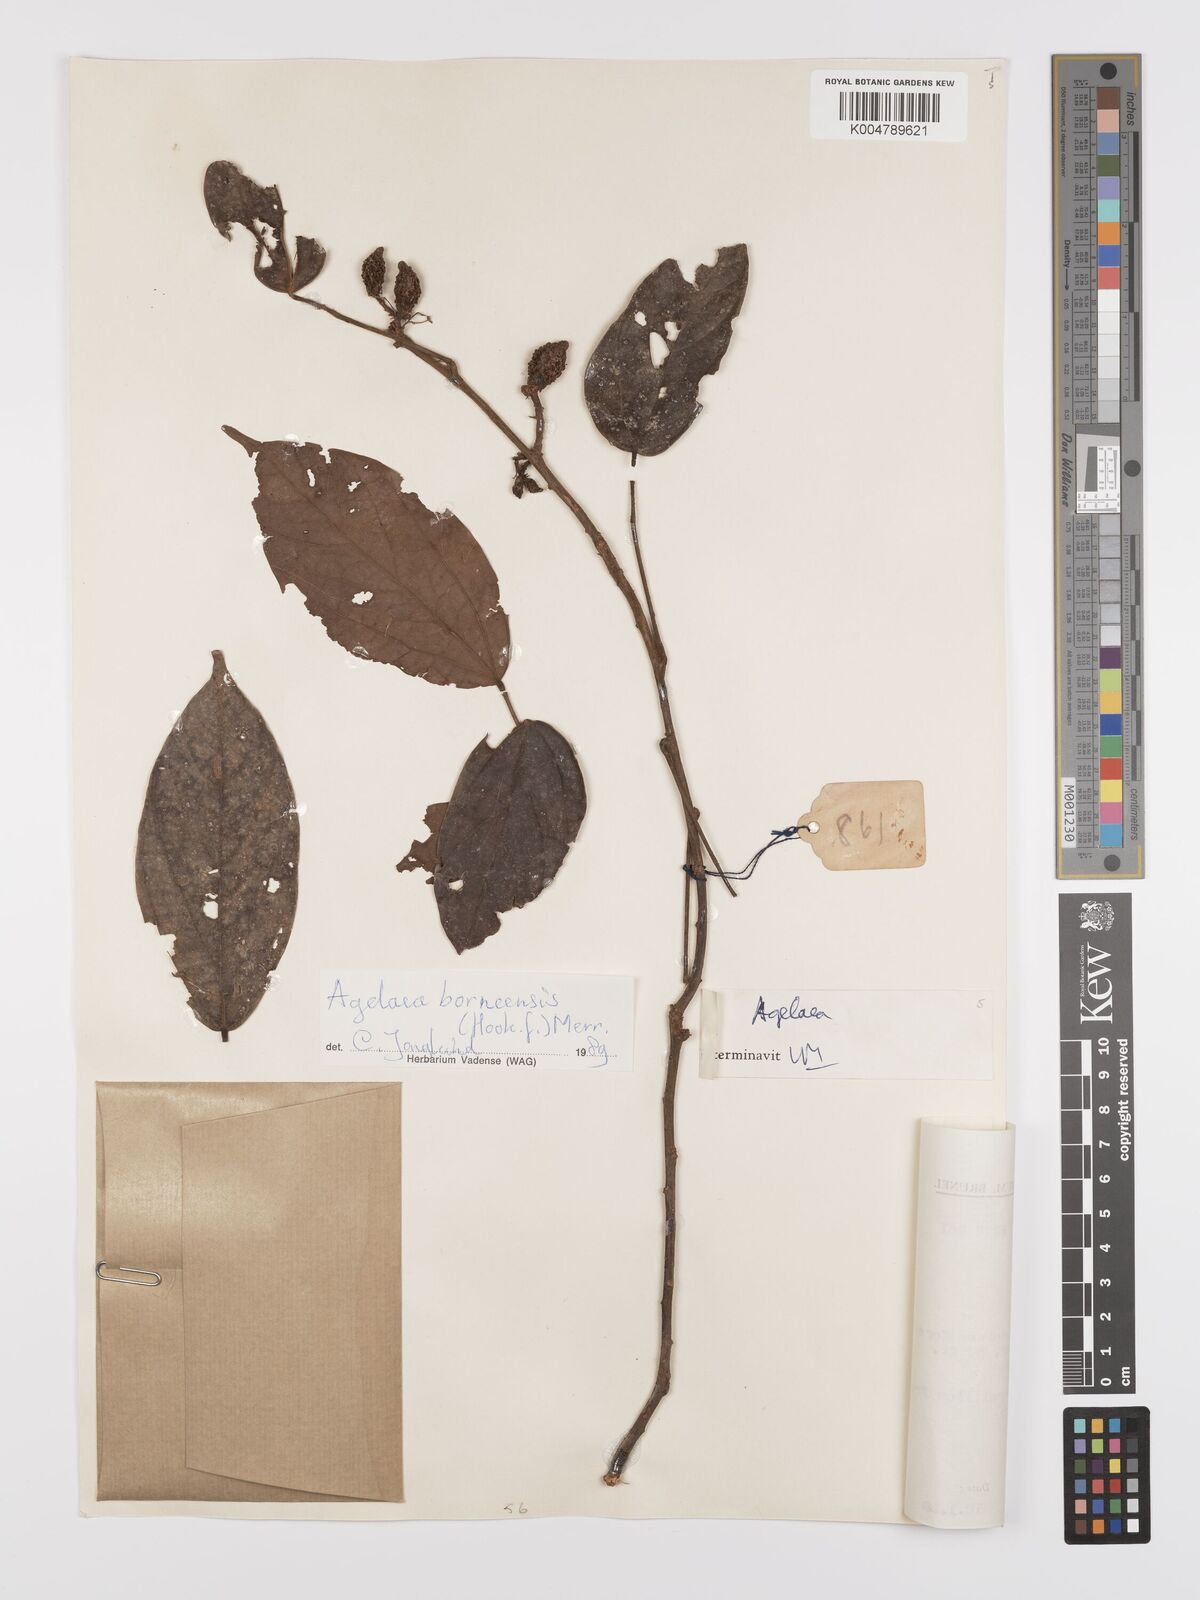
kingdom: Plantae
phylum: Tracheophyta
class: Magnoliopsida
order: Oxalidales
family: Connaraceae
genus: Agelaea
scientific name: Agelaea borneensis
